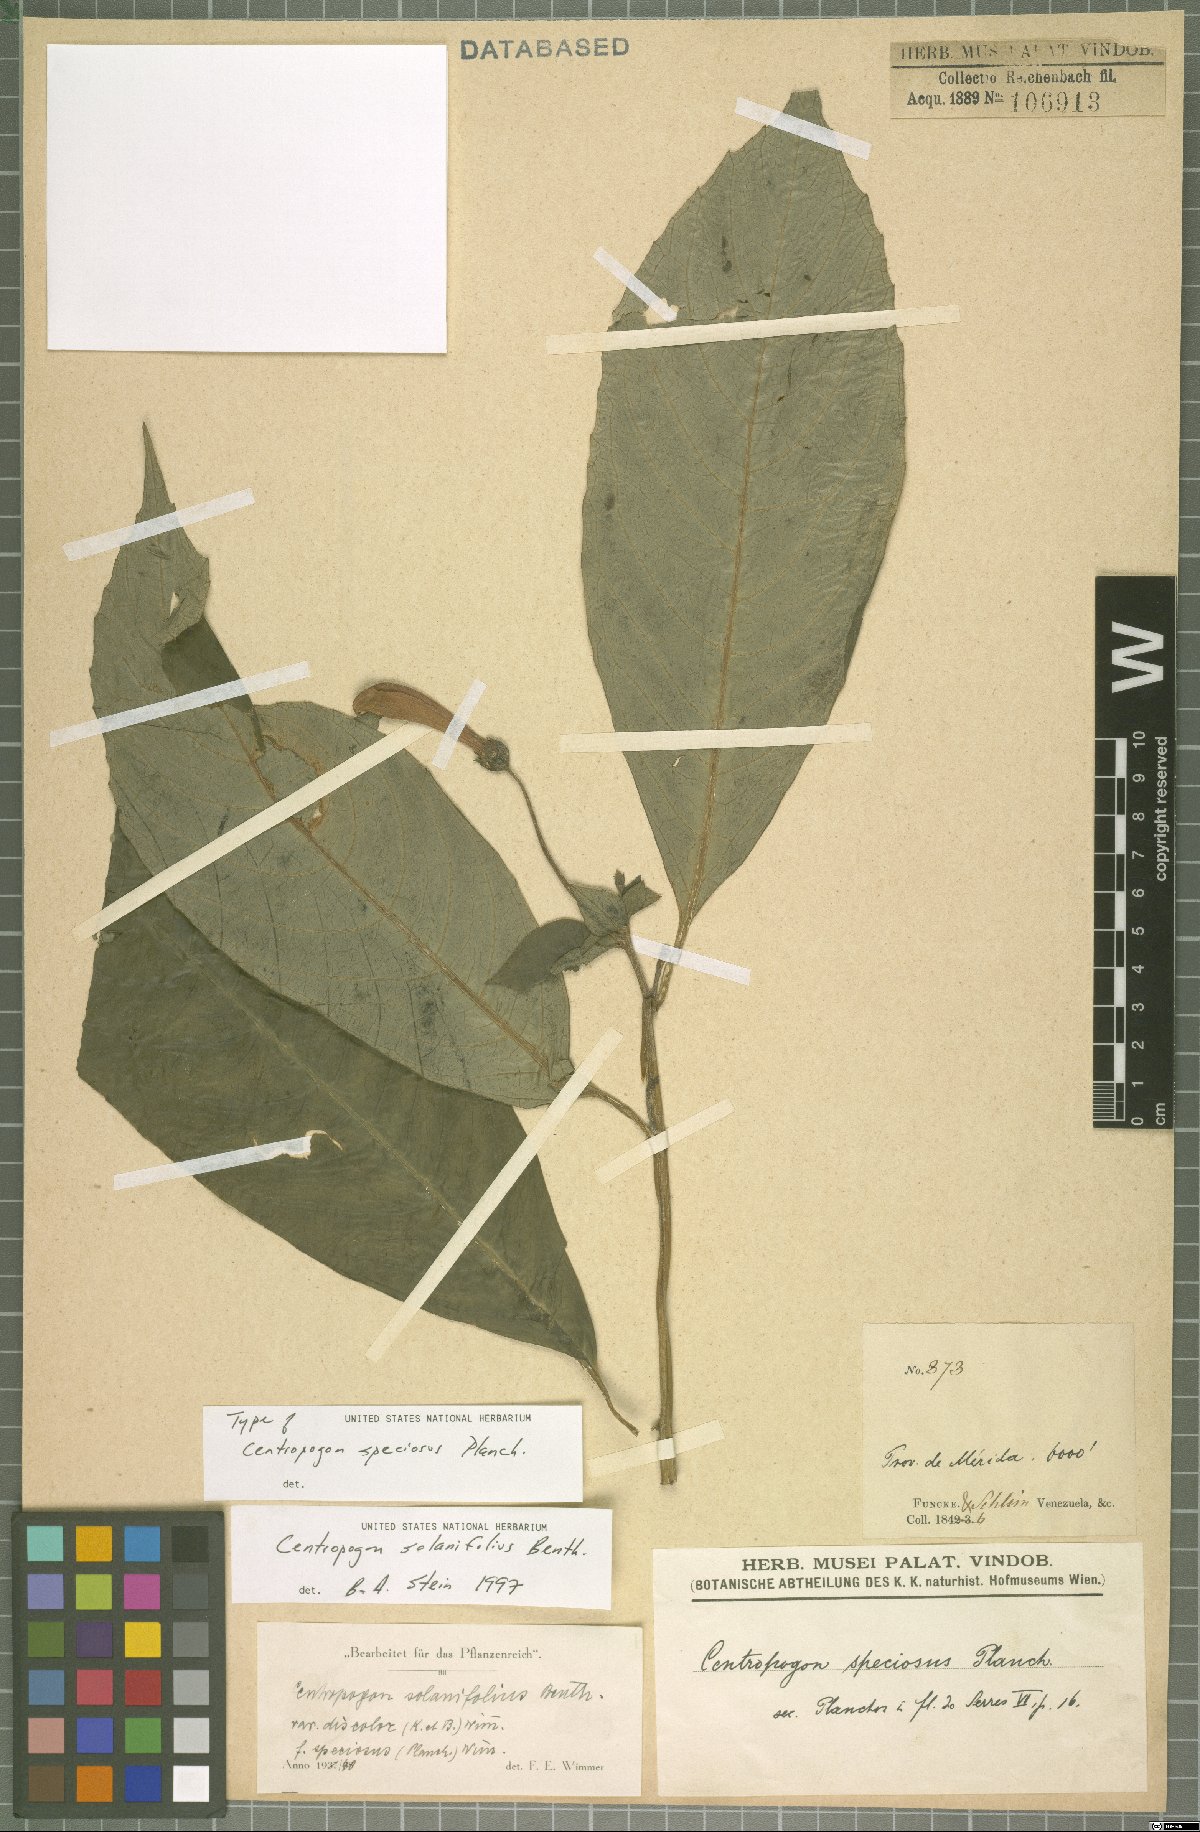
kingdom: Plantae
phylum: Tracheophyta
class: Magnoliopsida
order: Asterales
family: Campanulaceae
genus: Centropogon
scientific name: Centropogon solanifolius
